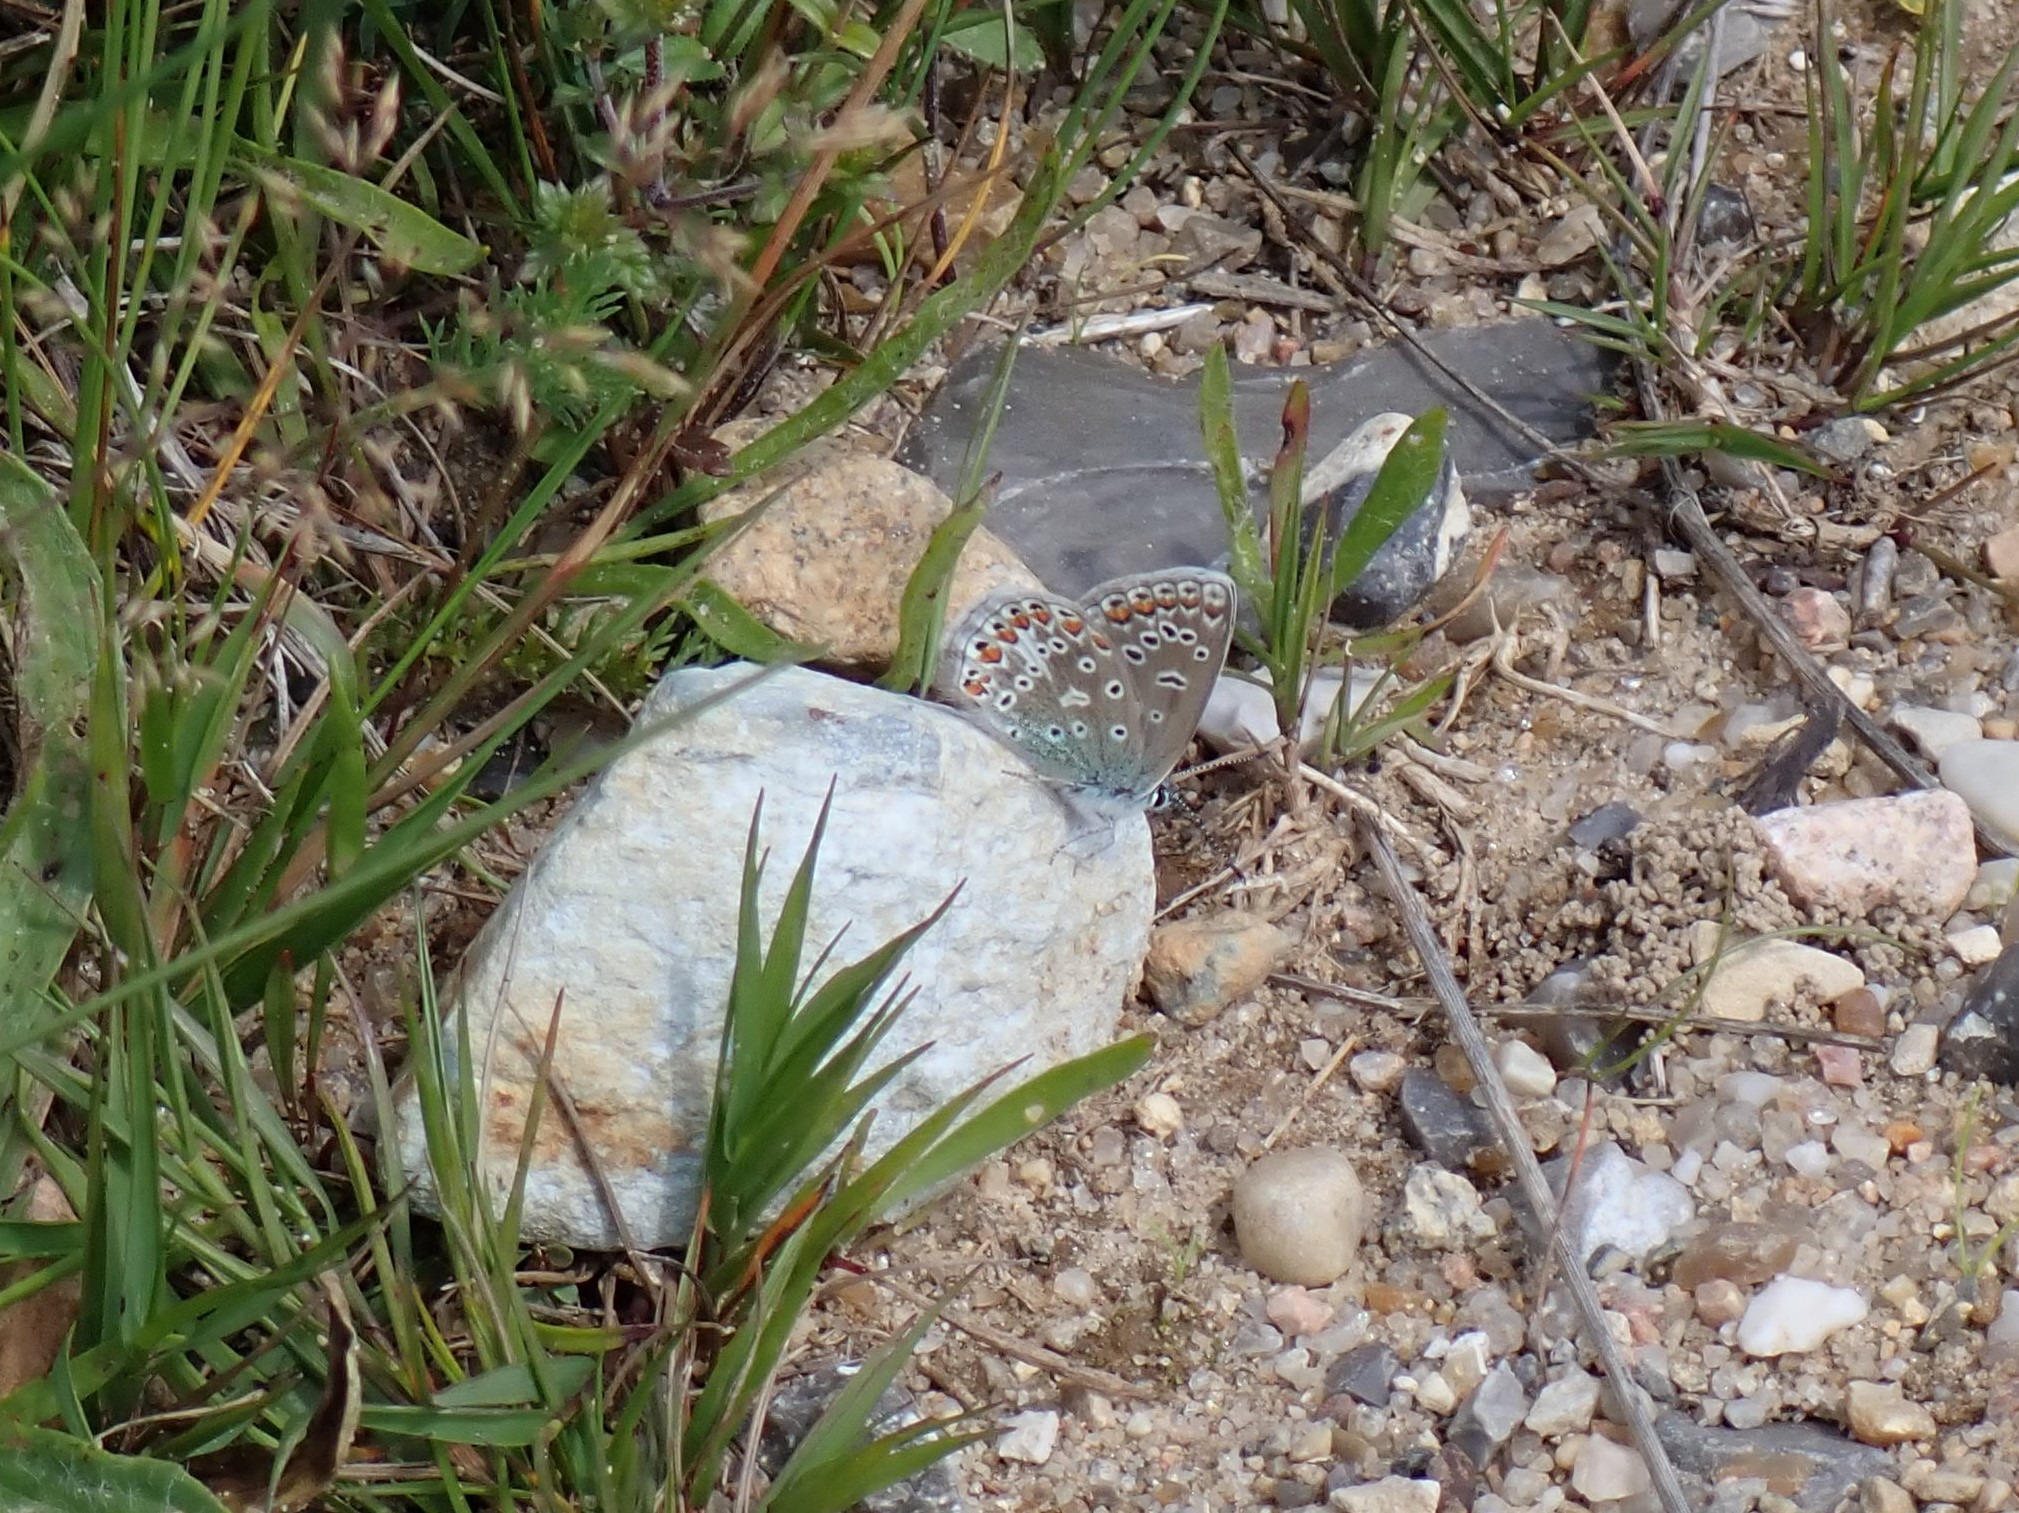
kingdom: Animalia
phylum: Arthropoda
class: Insecta
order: Lepidoptera
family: Lycaenidae
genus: Polyommatus
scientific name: Polyommatus icarus
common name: Almindelig blåfugl
